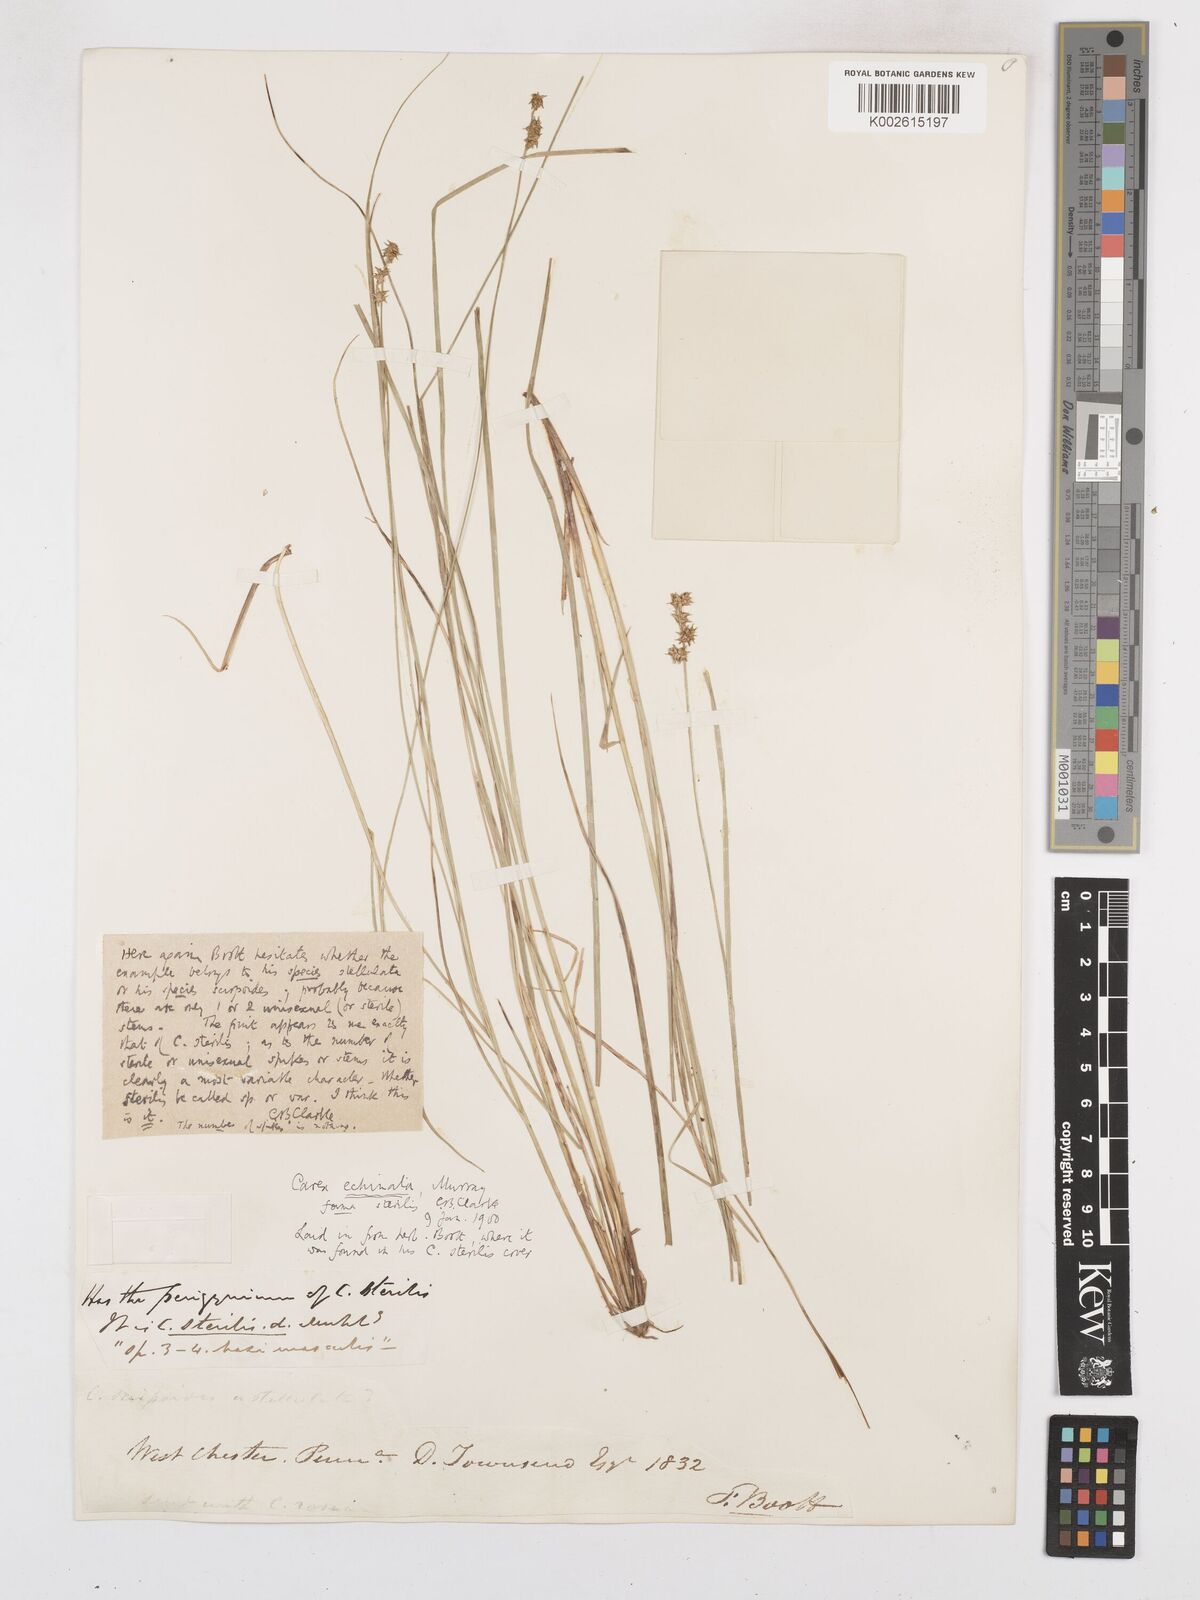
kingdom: Plantae
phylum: Tracheophyta
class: Liliopsida
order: Poales
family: Cyperaceae
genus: Carex
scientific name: Carex echinata
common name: Star sedge
